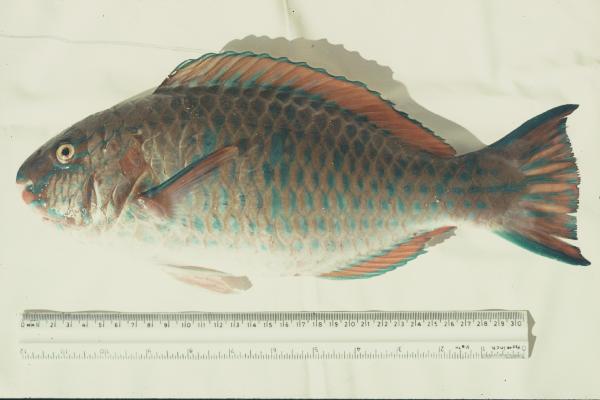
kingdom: Animalia
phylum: Chordata
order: Perciformes
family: Scaridae
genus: Scarus
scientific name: Scarus ghobban
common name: Blue-barred parrotfish
